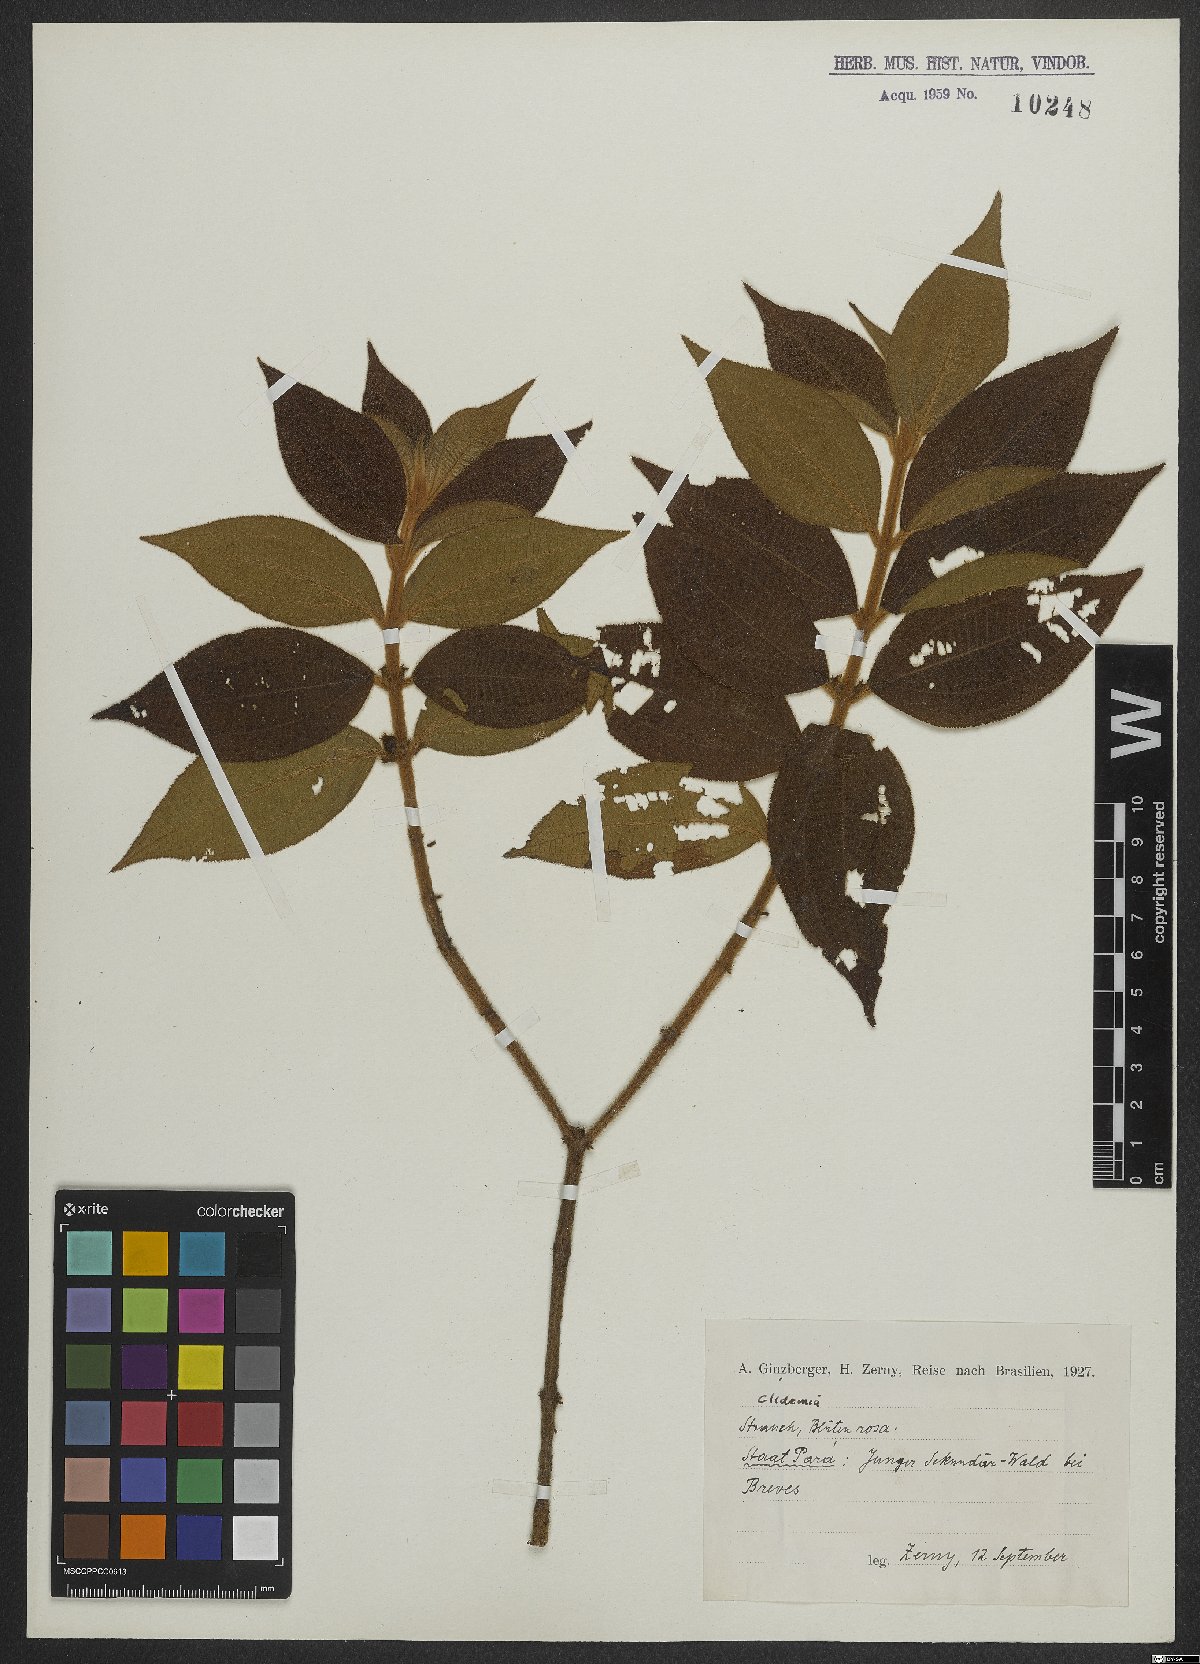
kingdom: Plantae
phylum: Tracheophyta
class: Magnoliopsida
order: Myrtales
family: Melastomataceae
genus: Miconia
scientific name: Miconia
